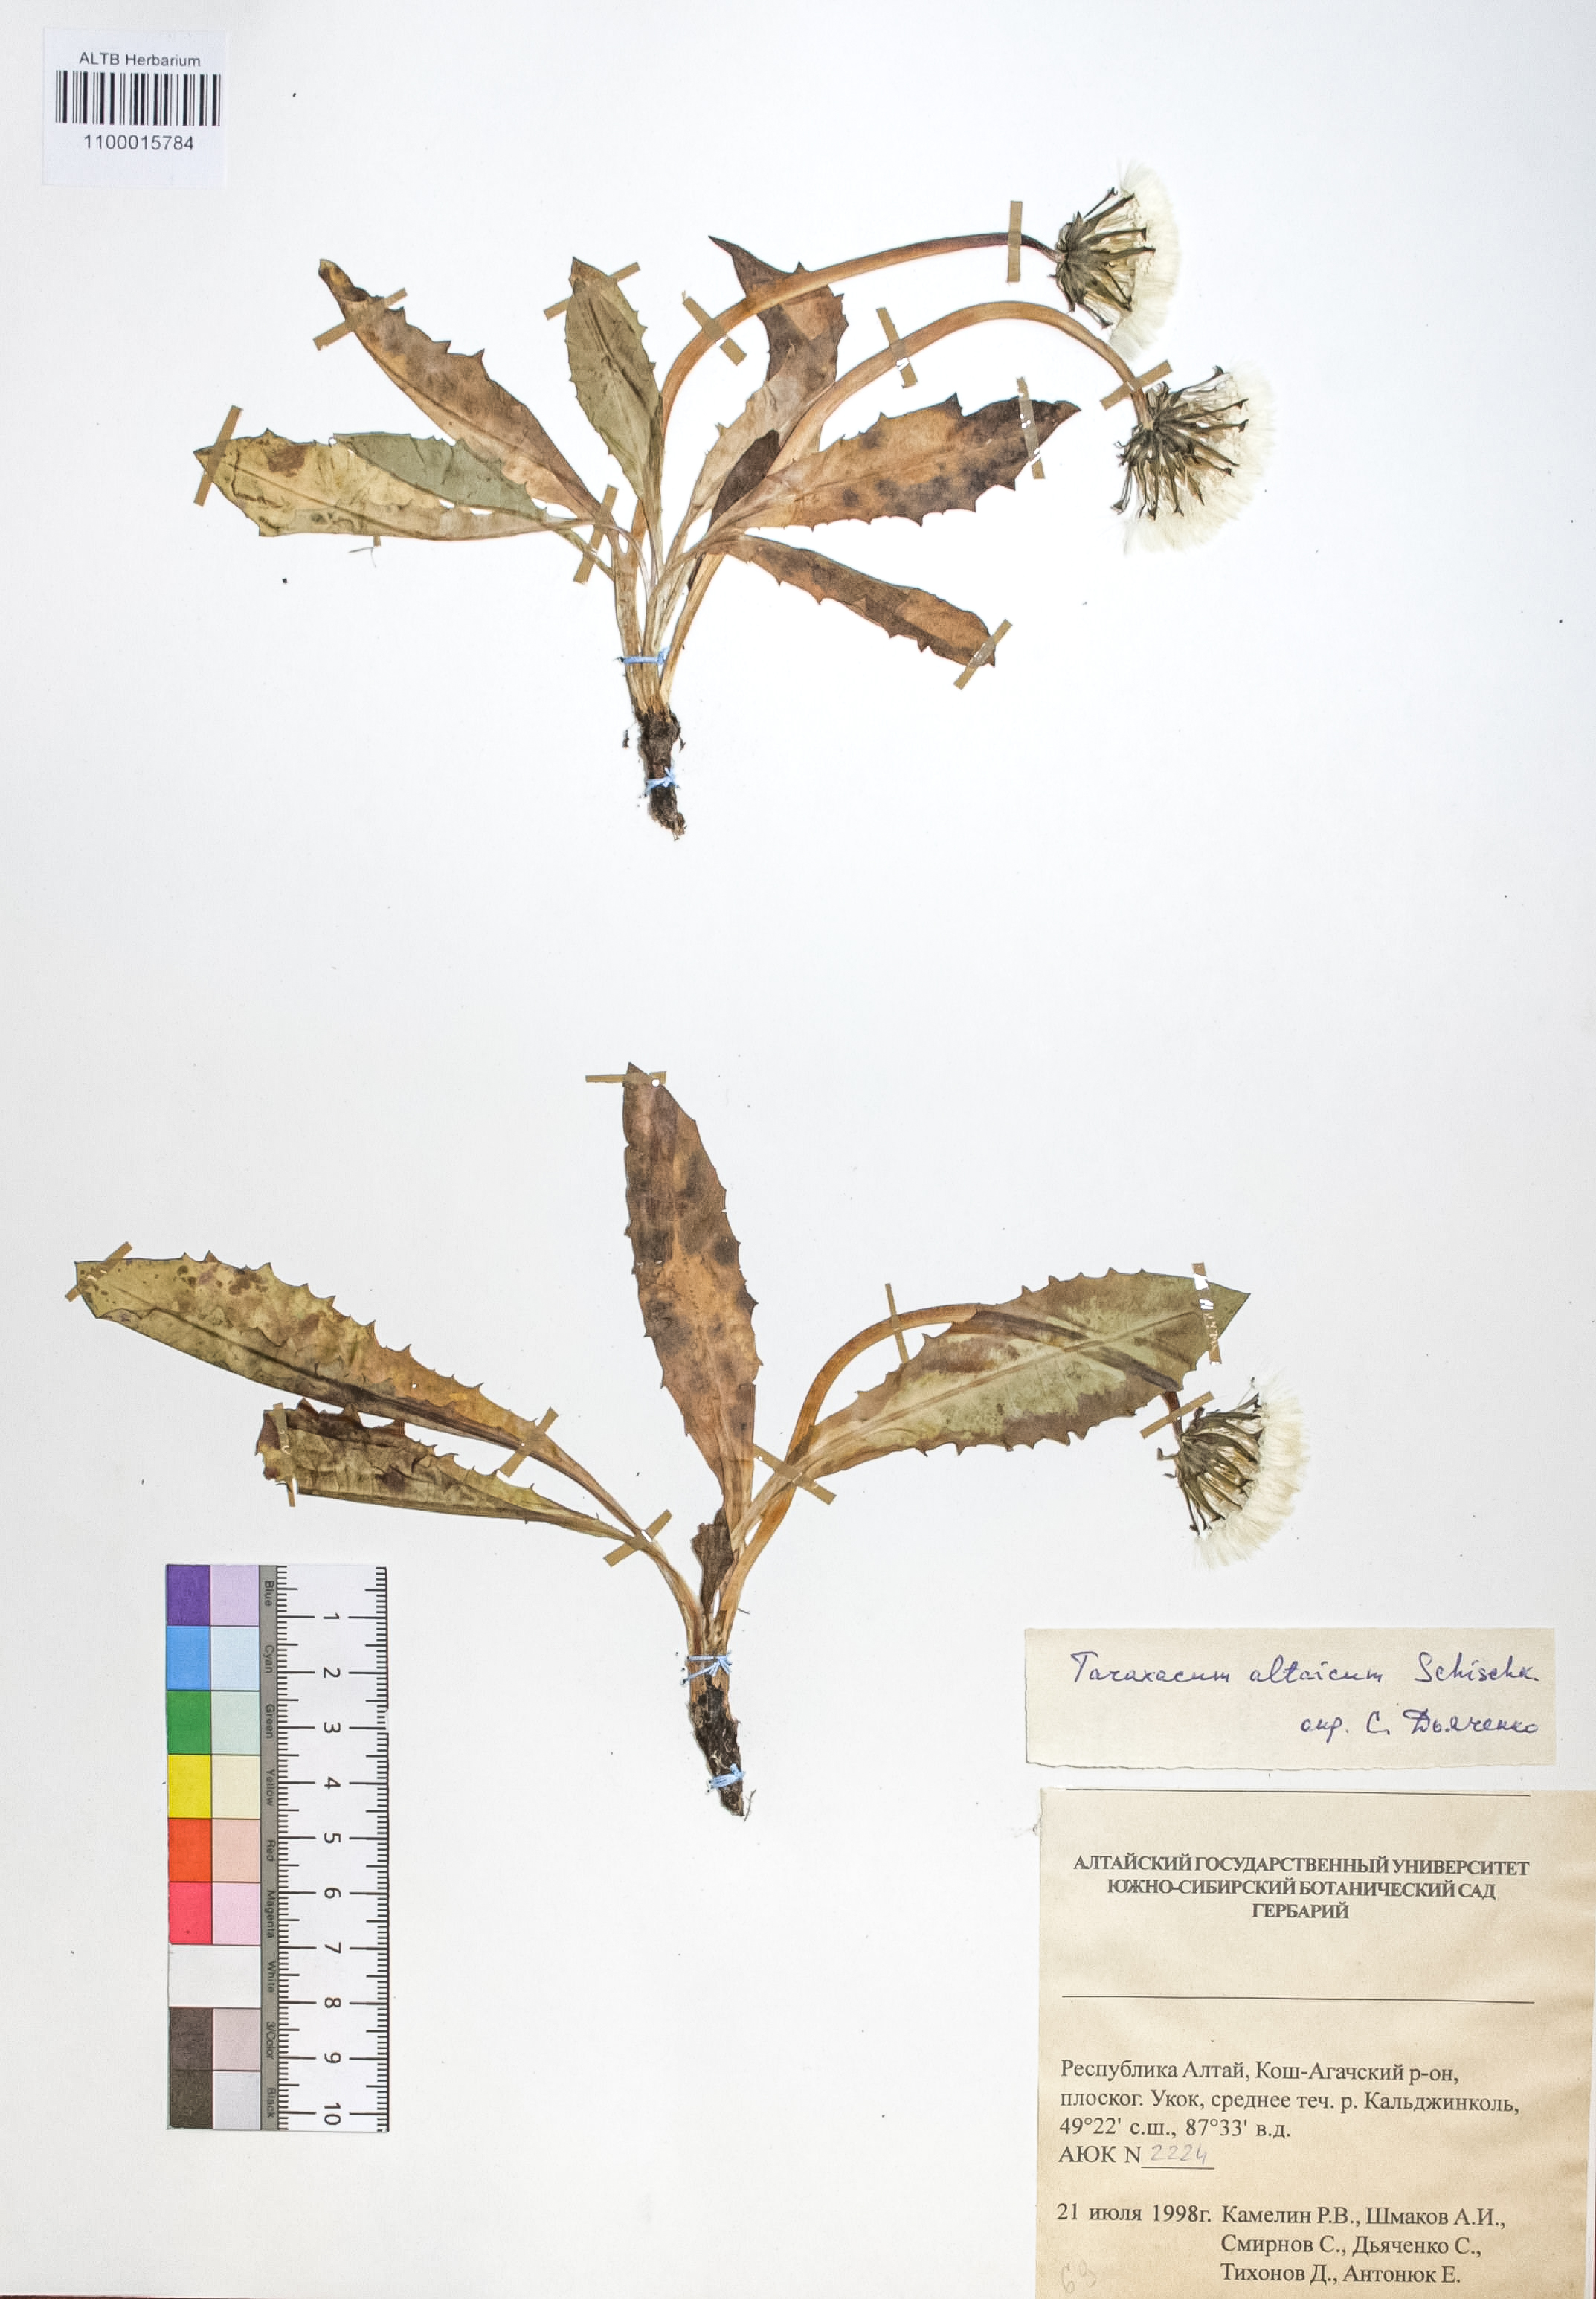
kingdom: Plantae
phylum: Tracheophyta
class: Magnoliopsida
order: Asterales
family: Asteraceae
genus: Taraxacum
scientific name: Taraxacum ceratophorum
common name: Horn-bearing dandelion
